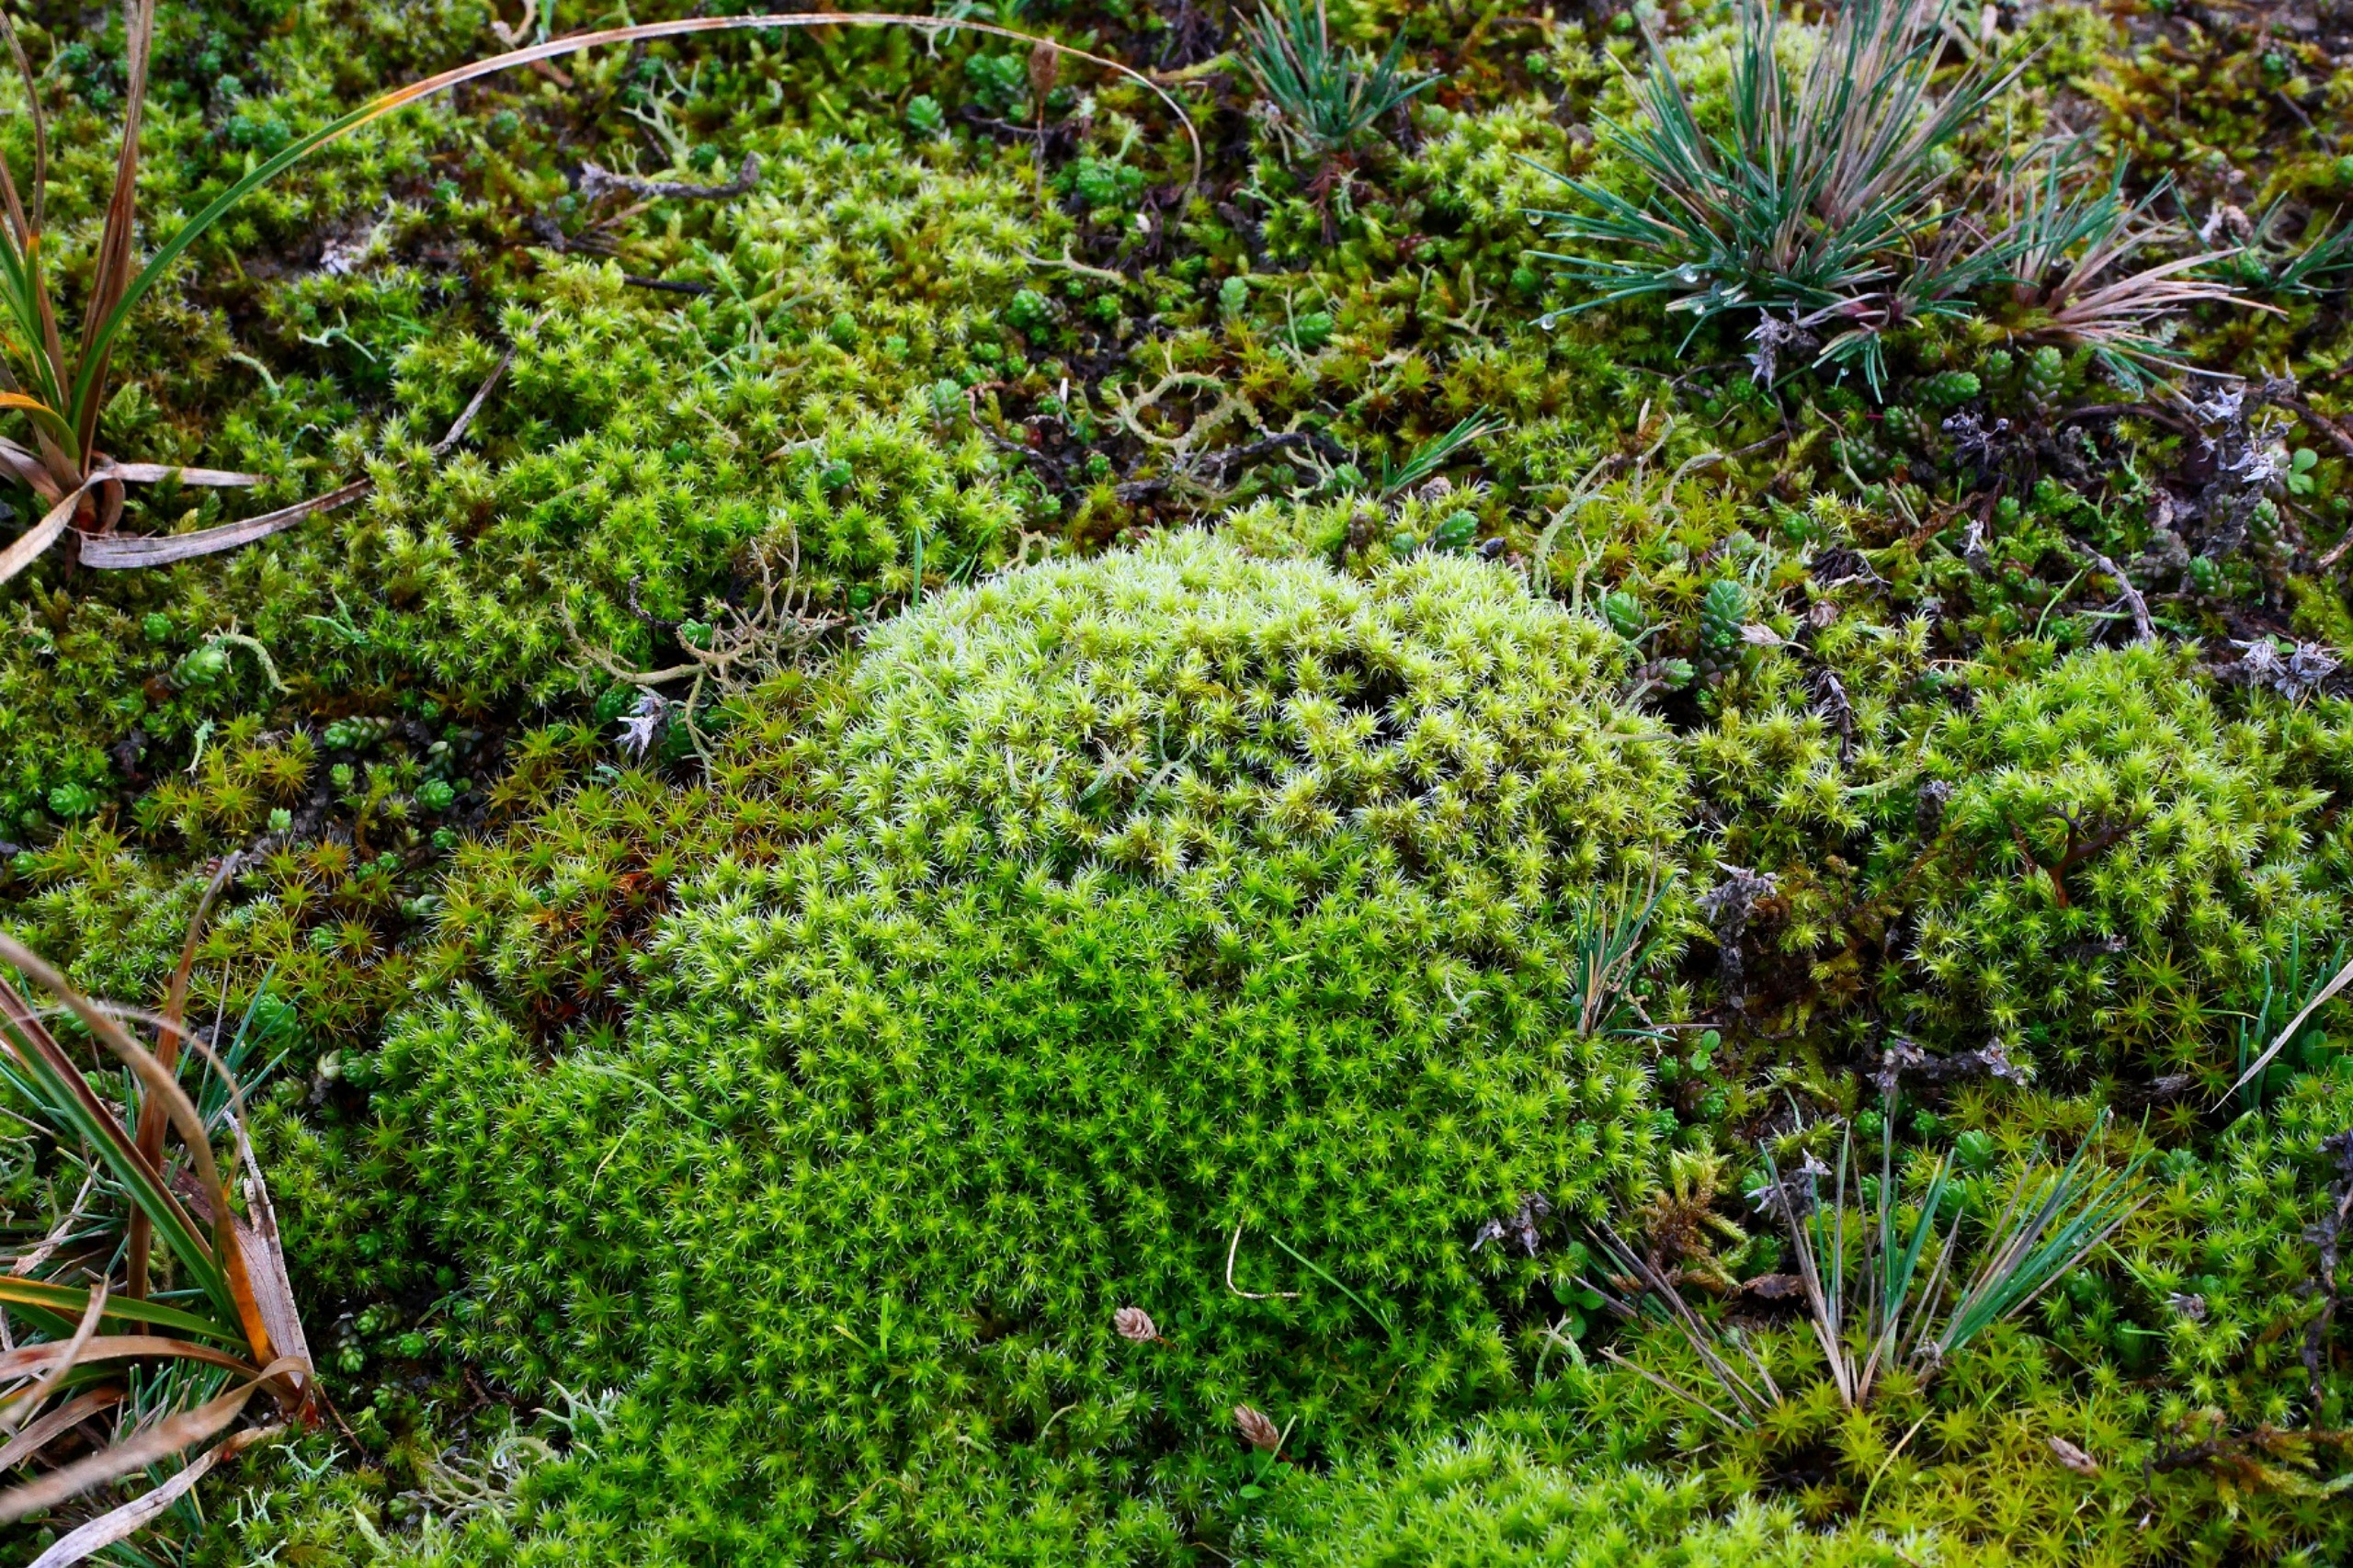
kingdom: Plantae
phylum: Bryophyta
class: Bryopsida
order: Grimmiales
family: Grimmiaceae
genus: Niphotrichum
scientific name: Niphotrichum canescens
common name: Sand-børstemos
